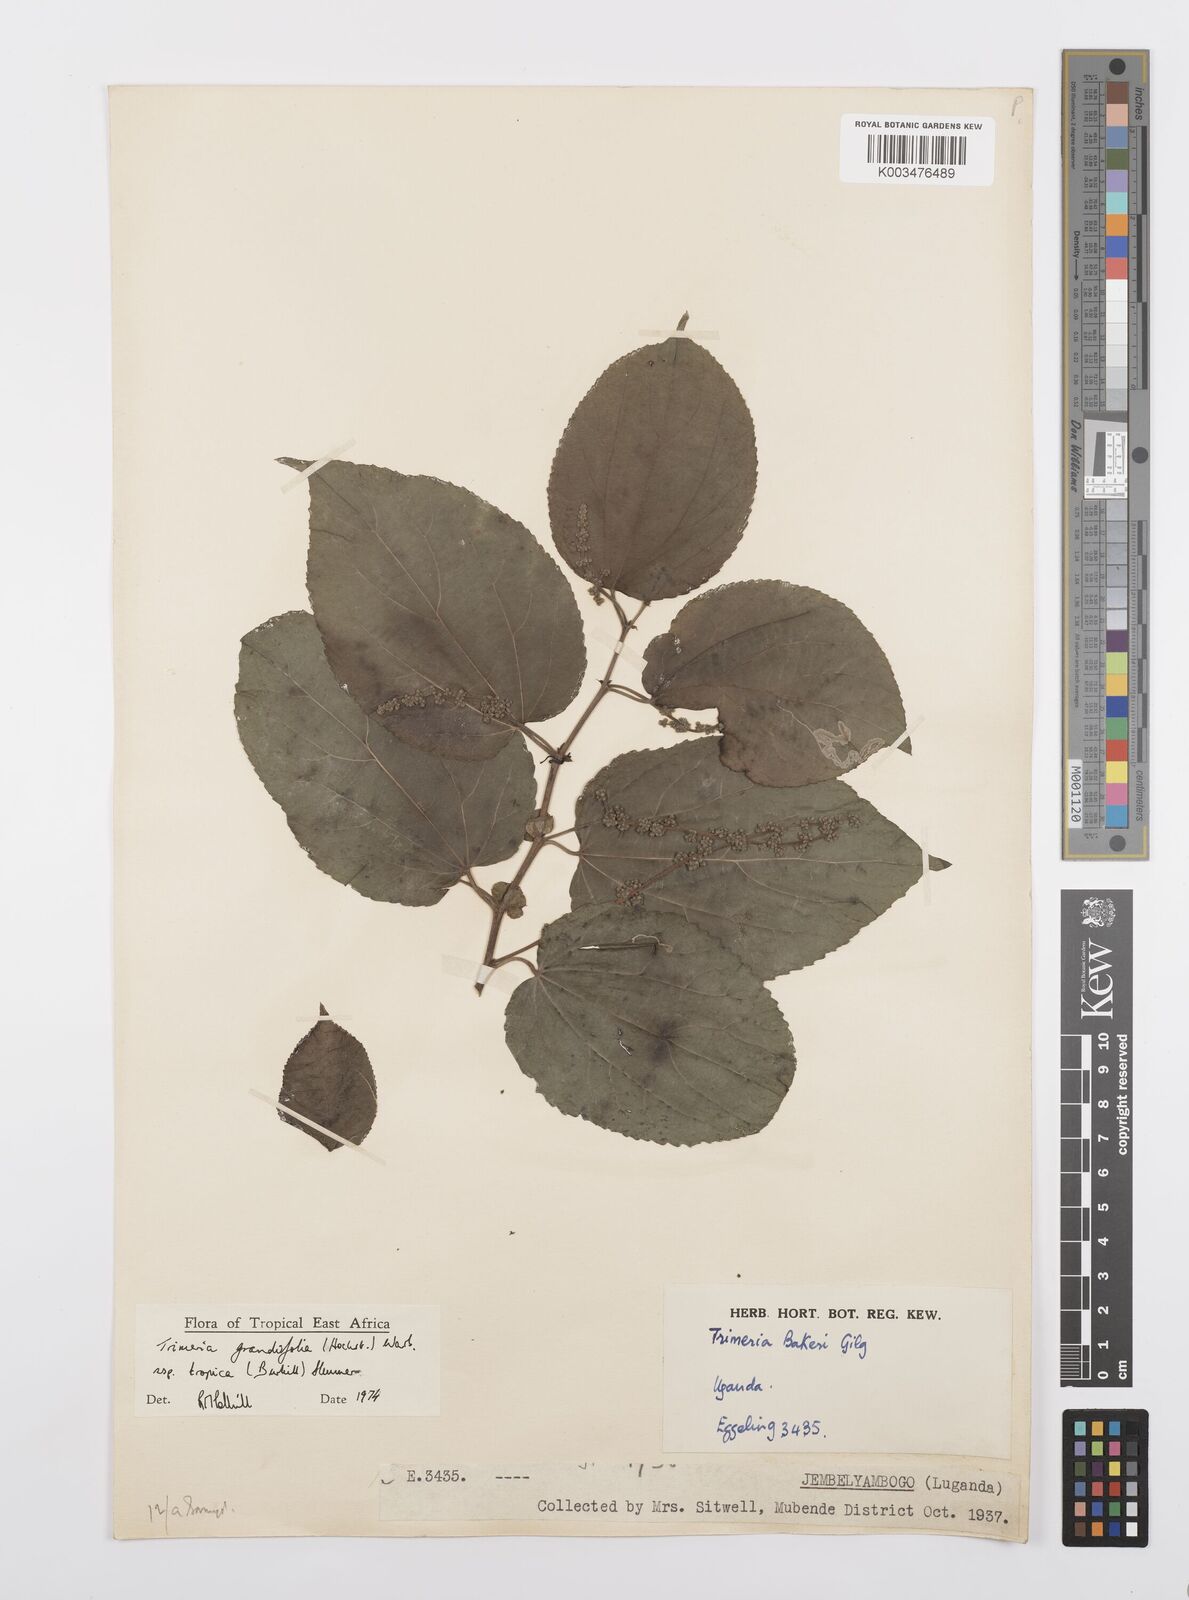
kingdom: Plantae
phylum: Tracheophyta
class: Magnoliopsida
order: Malpighiales
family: Salicaceae
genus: Trimeria
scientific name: Trimeria grandifolia
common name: Wild mulberry
